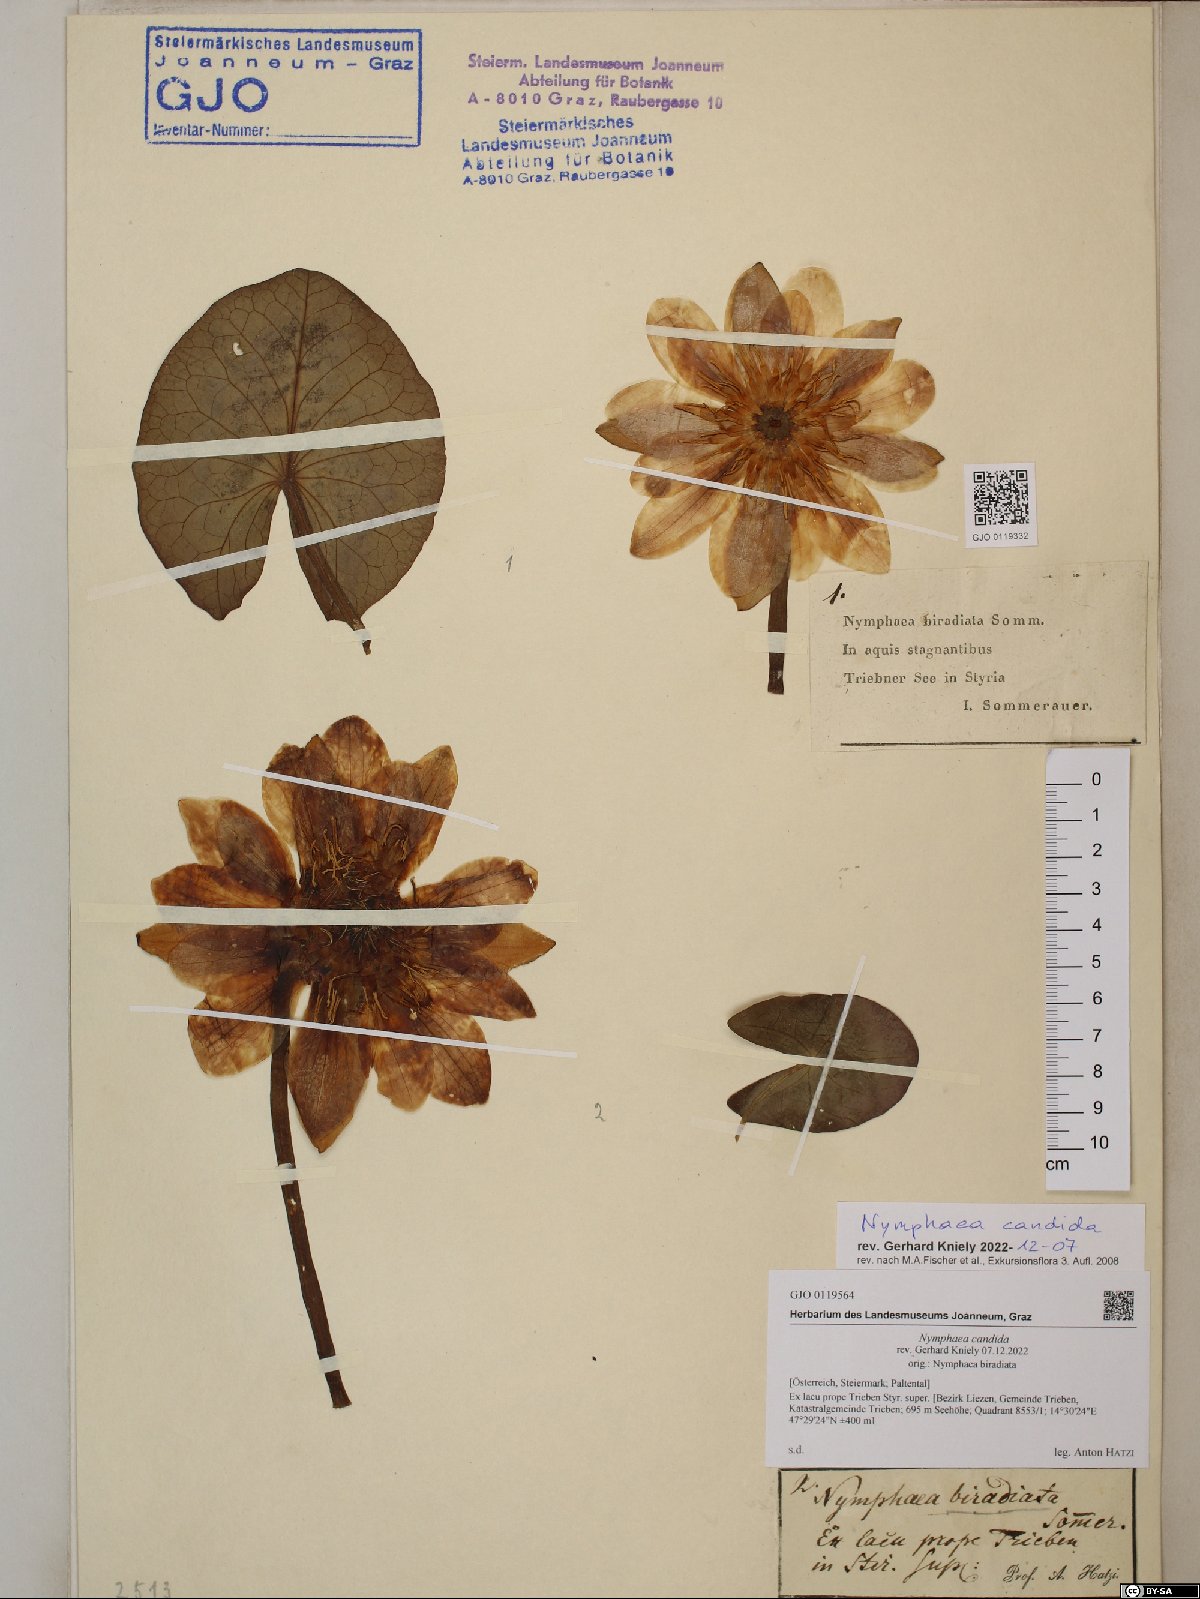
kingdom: Plantae
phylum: Tracheophyta
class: Magnoliopsida
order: Nymphaeales
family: Nymphaeaceae
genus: Nymphaea
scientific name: Nymphaea candida
